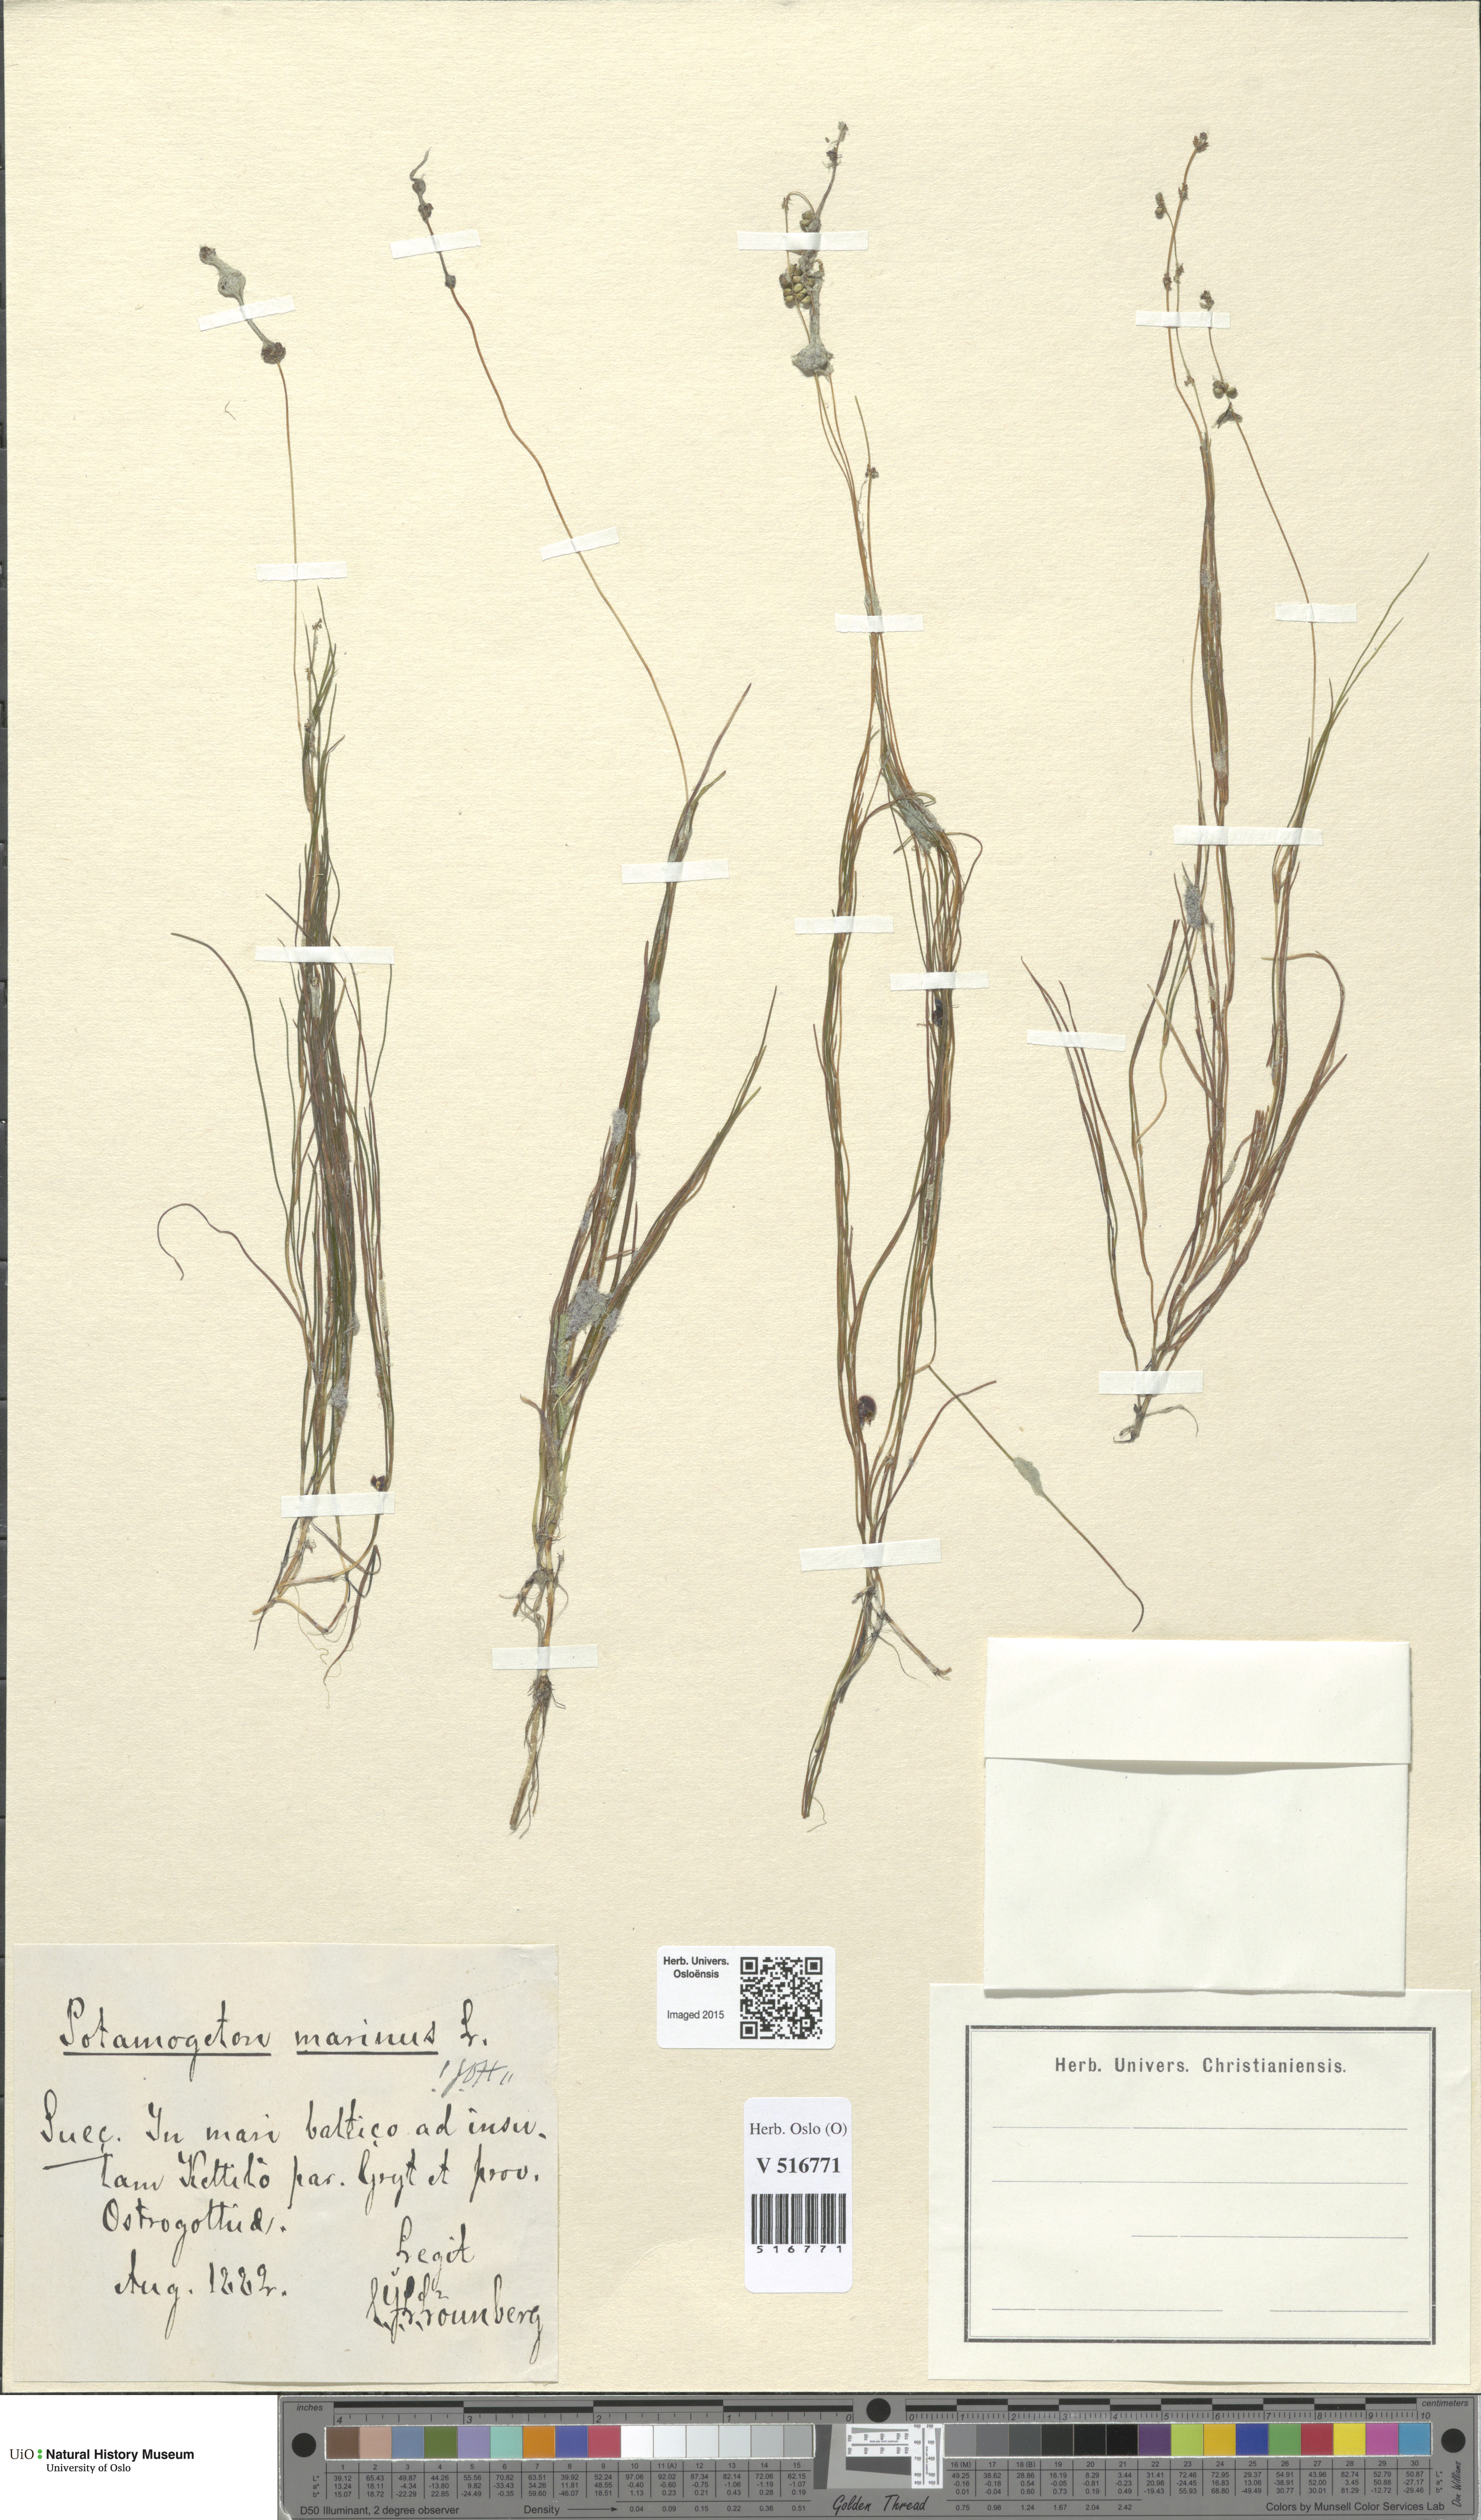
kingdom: Plantae
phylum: Tracheophyta
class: Liliopsida
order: Alismatales
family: Potamogetonaceae
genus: Stuckenia
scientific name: Stuckenia filiformis
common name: Alpine thread-leaved pondweed
